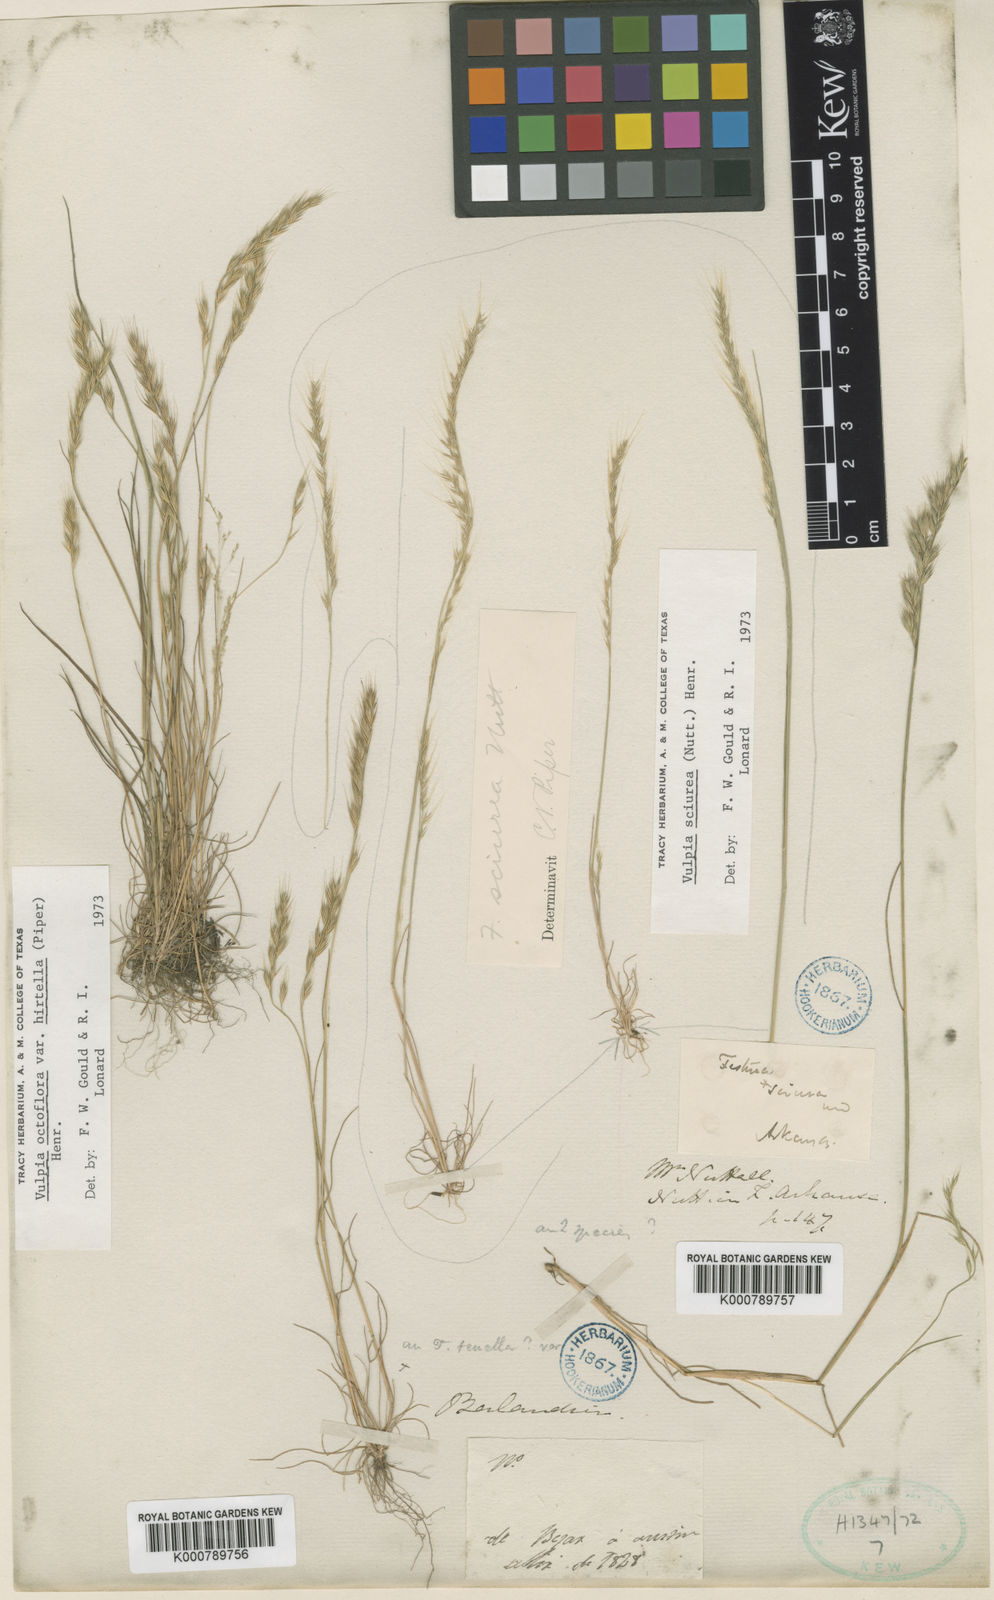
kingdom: Plantae
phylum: Tracheophyta
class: Liliopsida
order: Poales
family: Poaceae
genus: Festuca
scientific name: Festuca sciurea
